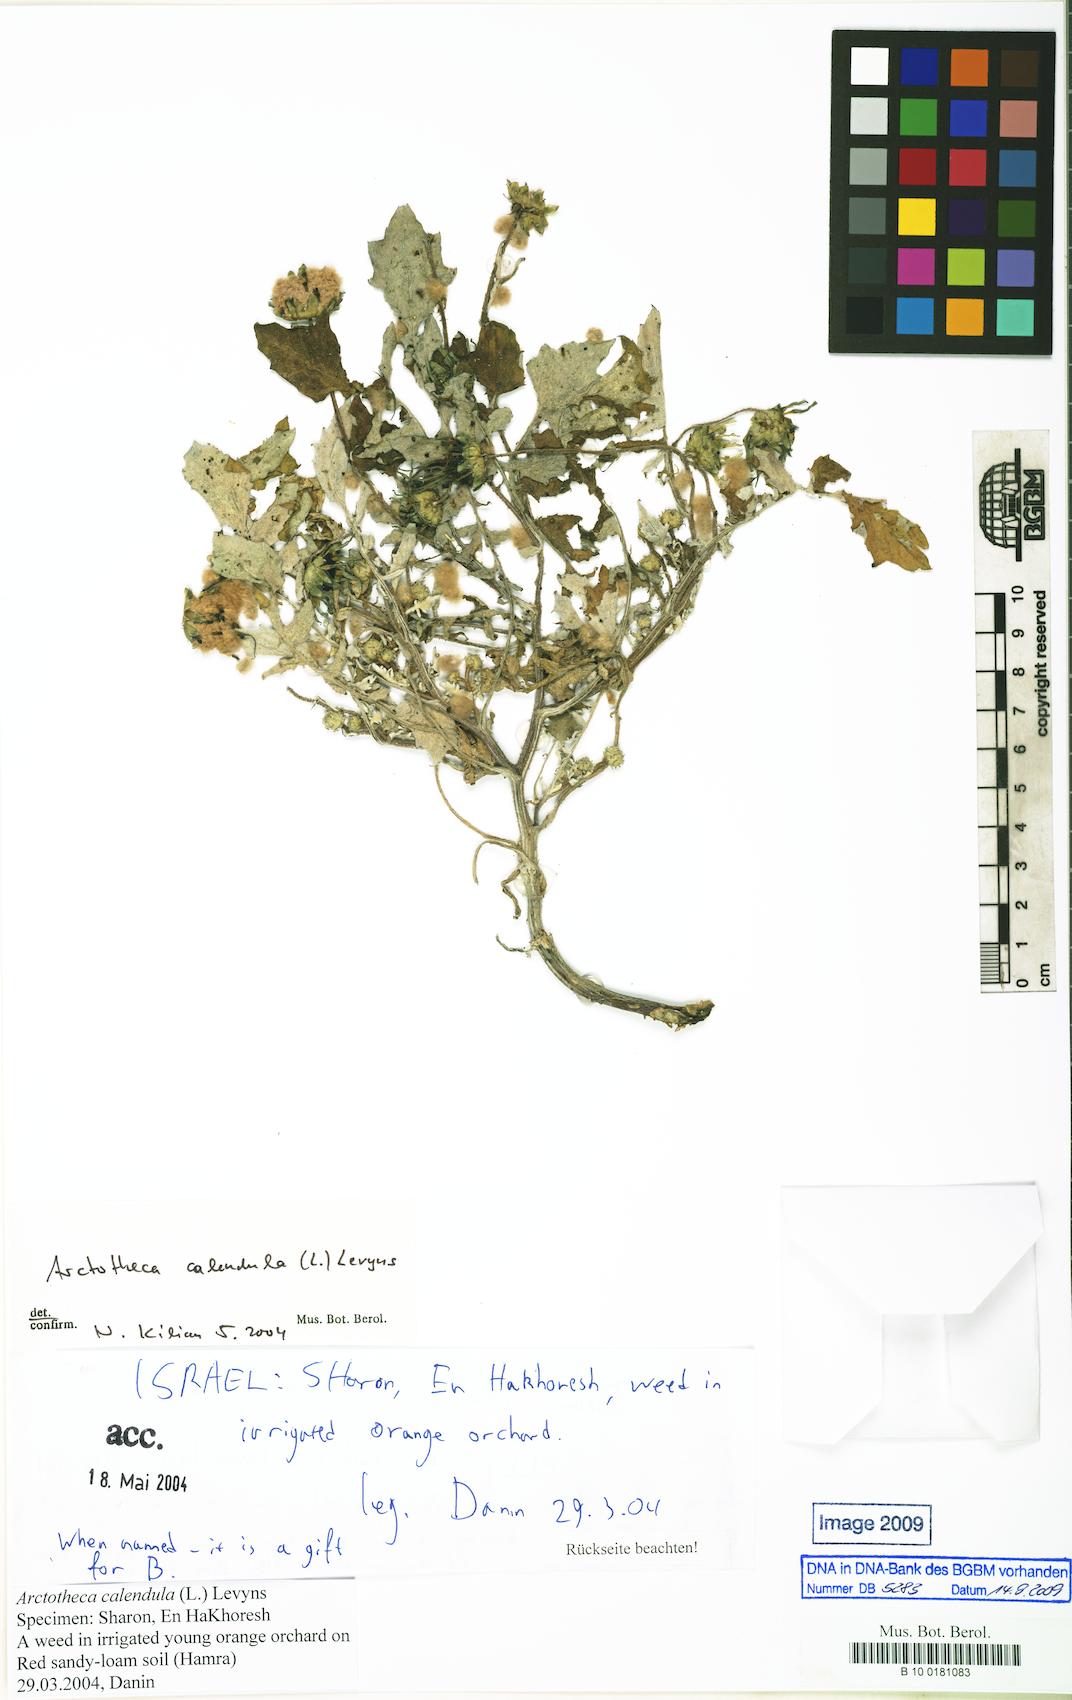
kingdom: Plantae
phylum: Tracheophyta
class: Magnoliopsida
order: Asterales
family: Asteraceae
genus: Arctotheca
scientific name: Arctotheca calendula
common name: Capeweed
